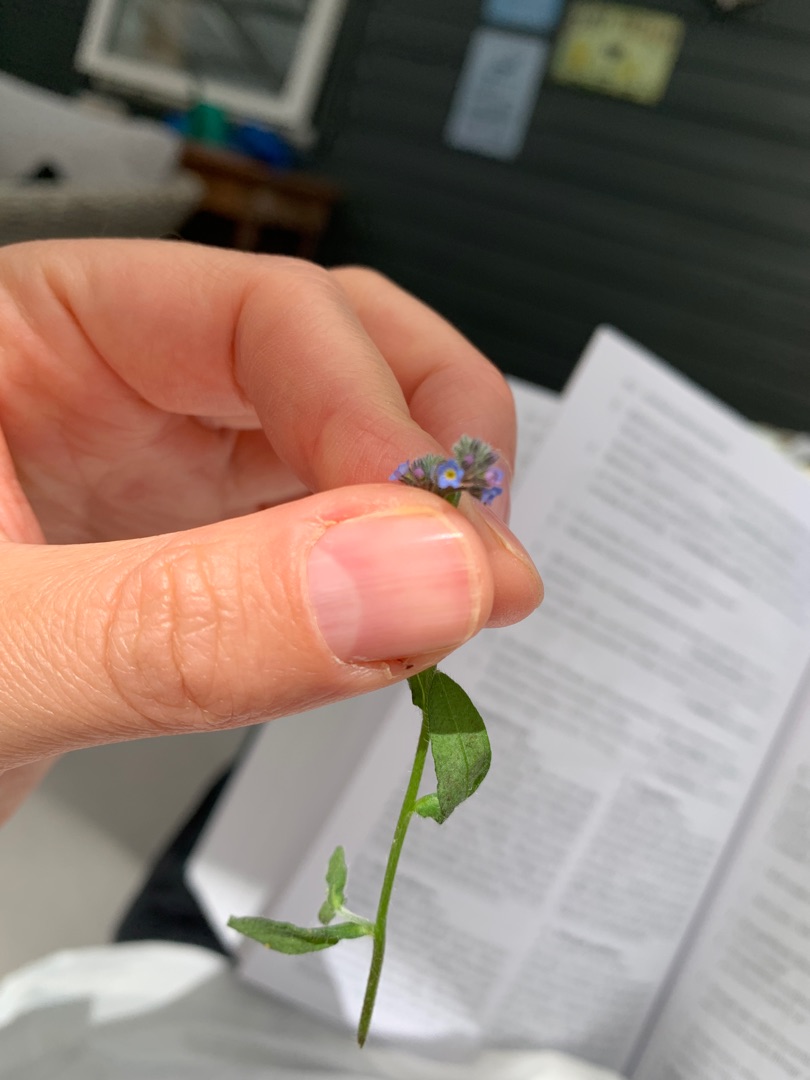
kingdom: Plantae
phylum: Tracheophyta
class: Magnoliopsida
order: Boraginales
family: Boraginaceae
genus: Myosotis
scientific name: Myosotis arvensis
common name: Mark-forglemmigej
